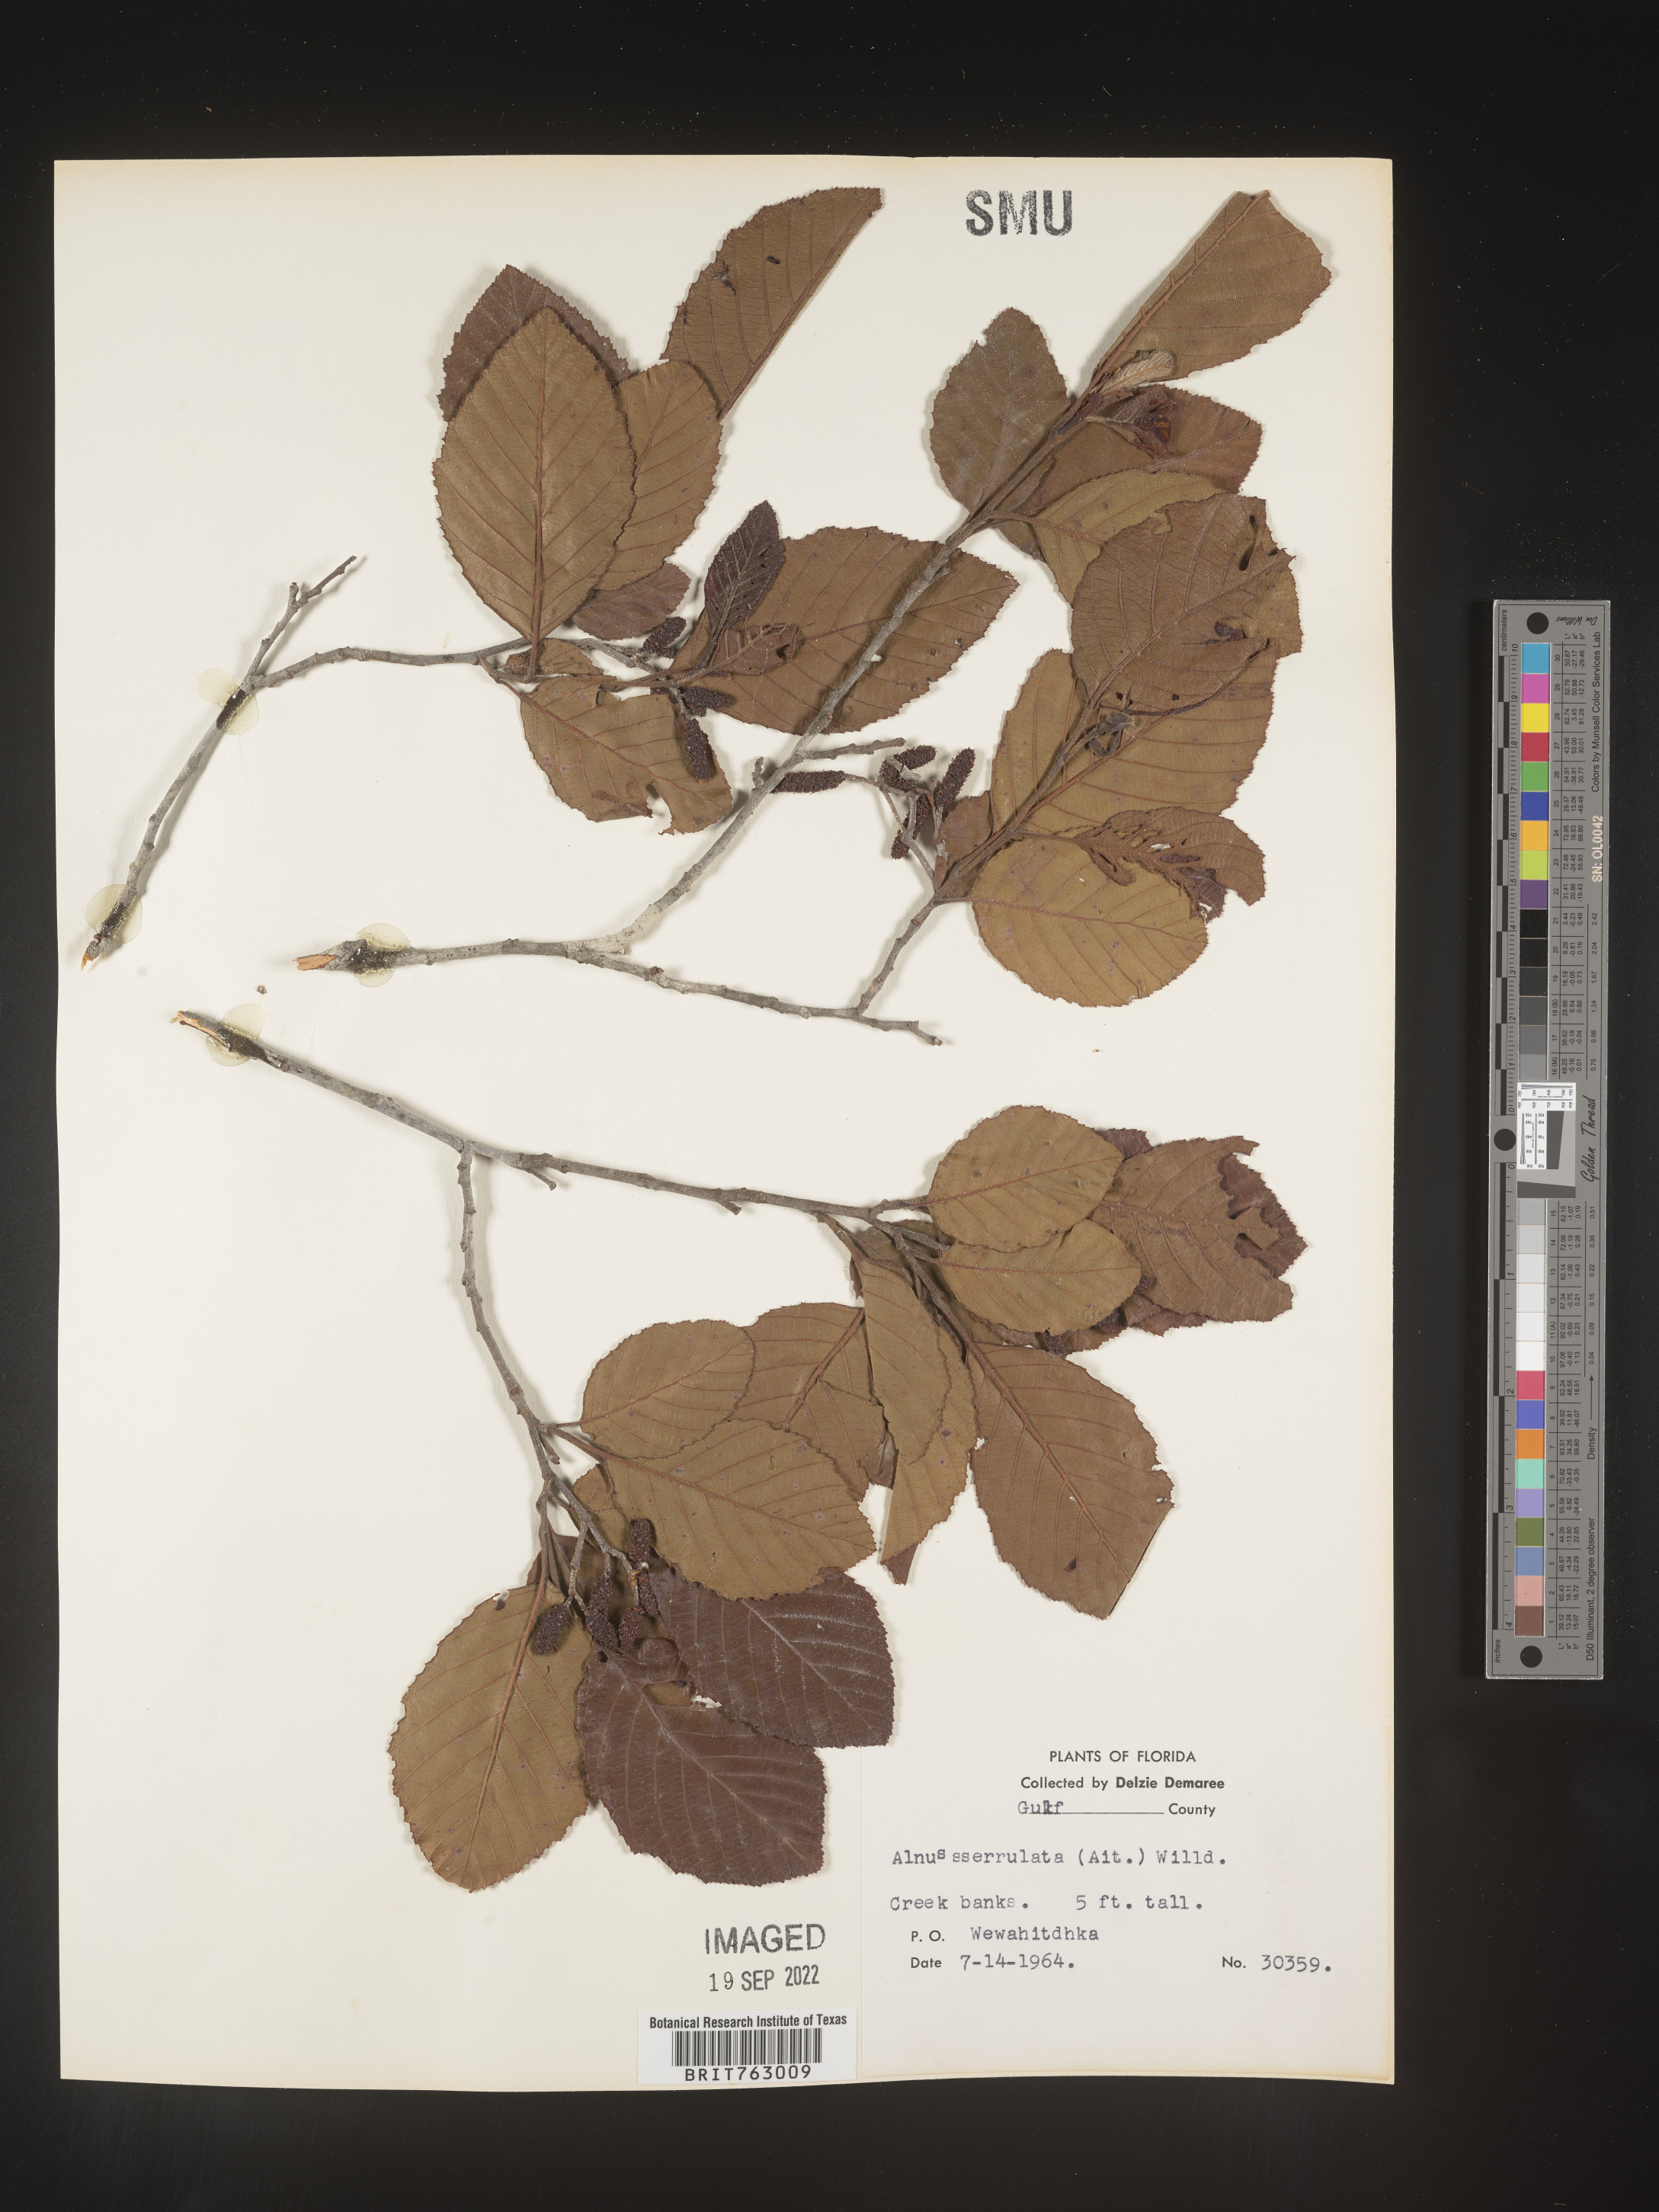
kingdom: Plantae
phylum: Tracheophyta
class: Magnoliopsida
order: Fagales
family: Betulaceae
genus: Alnus
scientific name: Alnus serrulata
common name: Hazel alder
